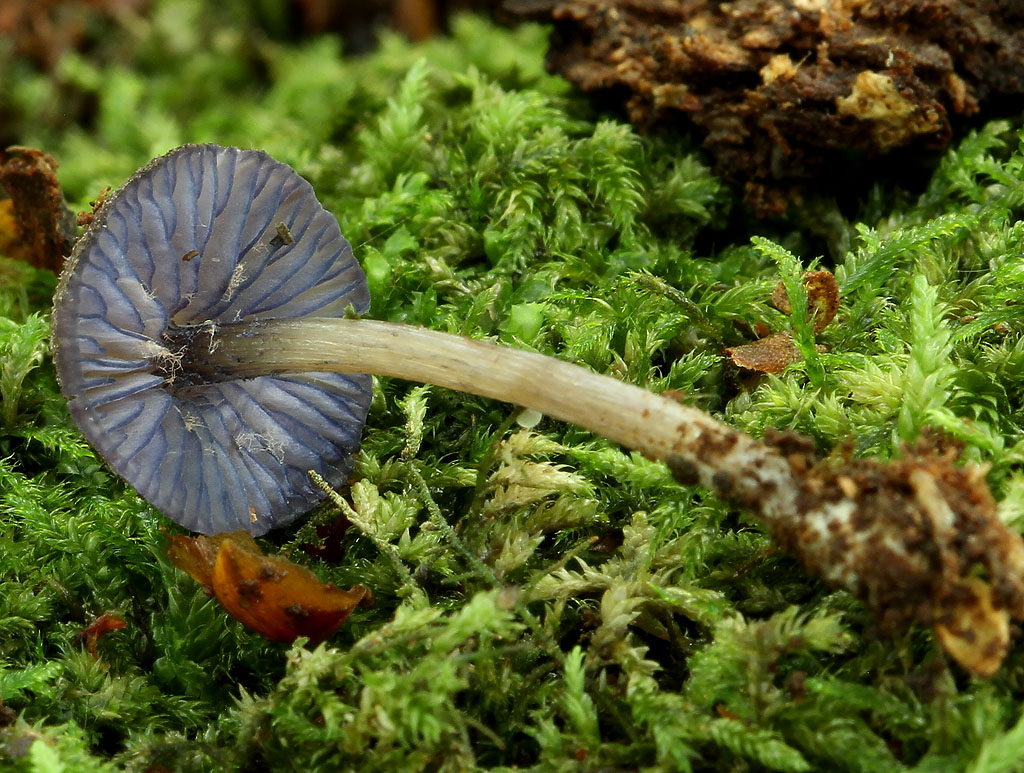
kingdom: Fungi
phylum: Basidiomycota
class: Agaricomycetes
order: Agaricales
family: Entolomataceae
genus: Entoloma
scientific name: Entoloma euchroum
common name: smuk rødblad
